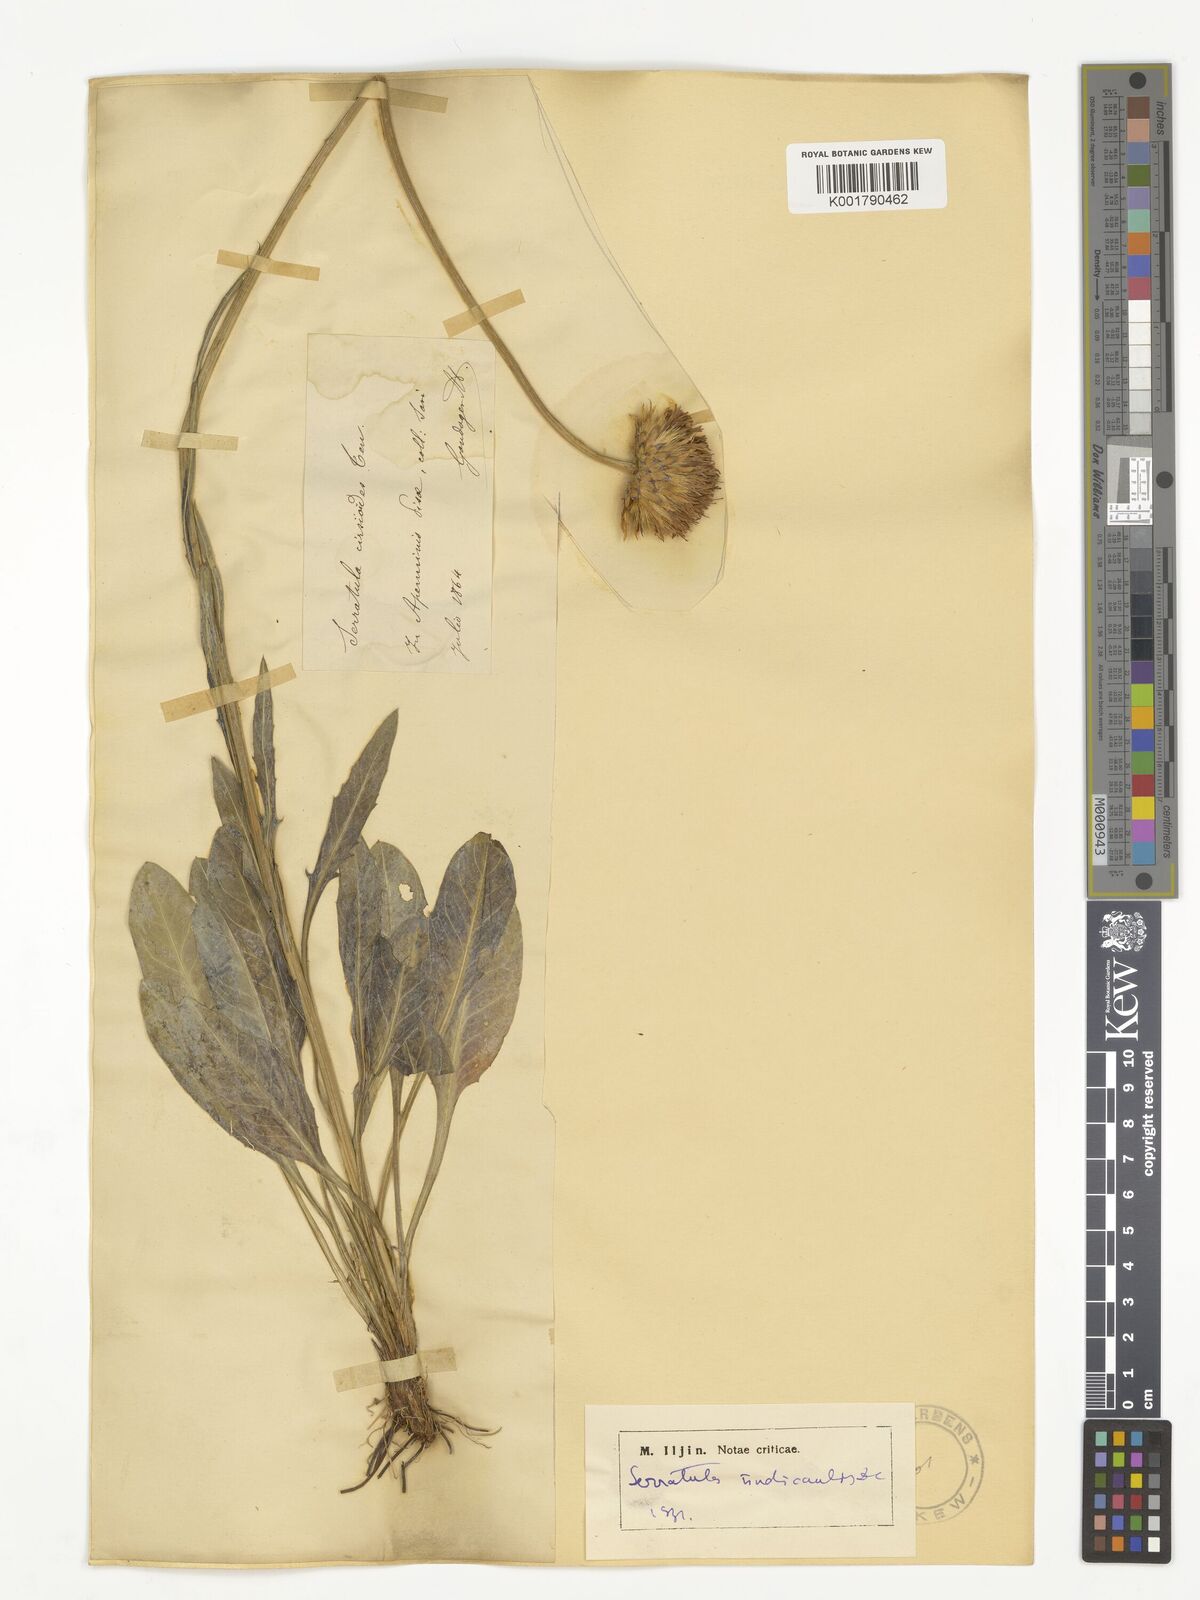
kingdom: Plantae
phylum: Tracheophyta
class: Magnoliopsida
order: Asterales
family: Asteraceae
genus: Serratula
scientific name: Serratula cirsioides
